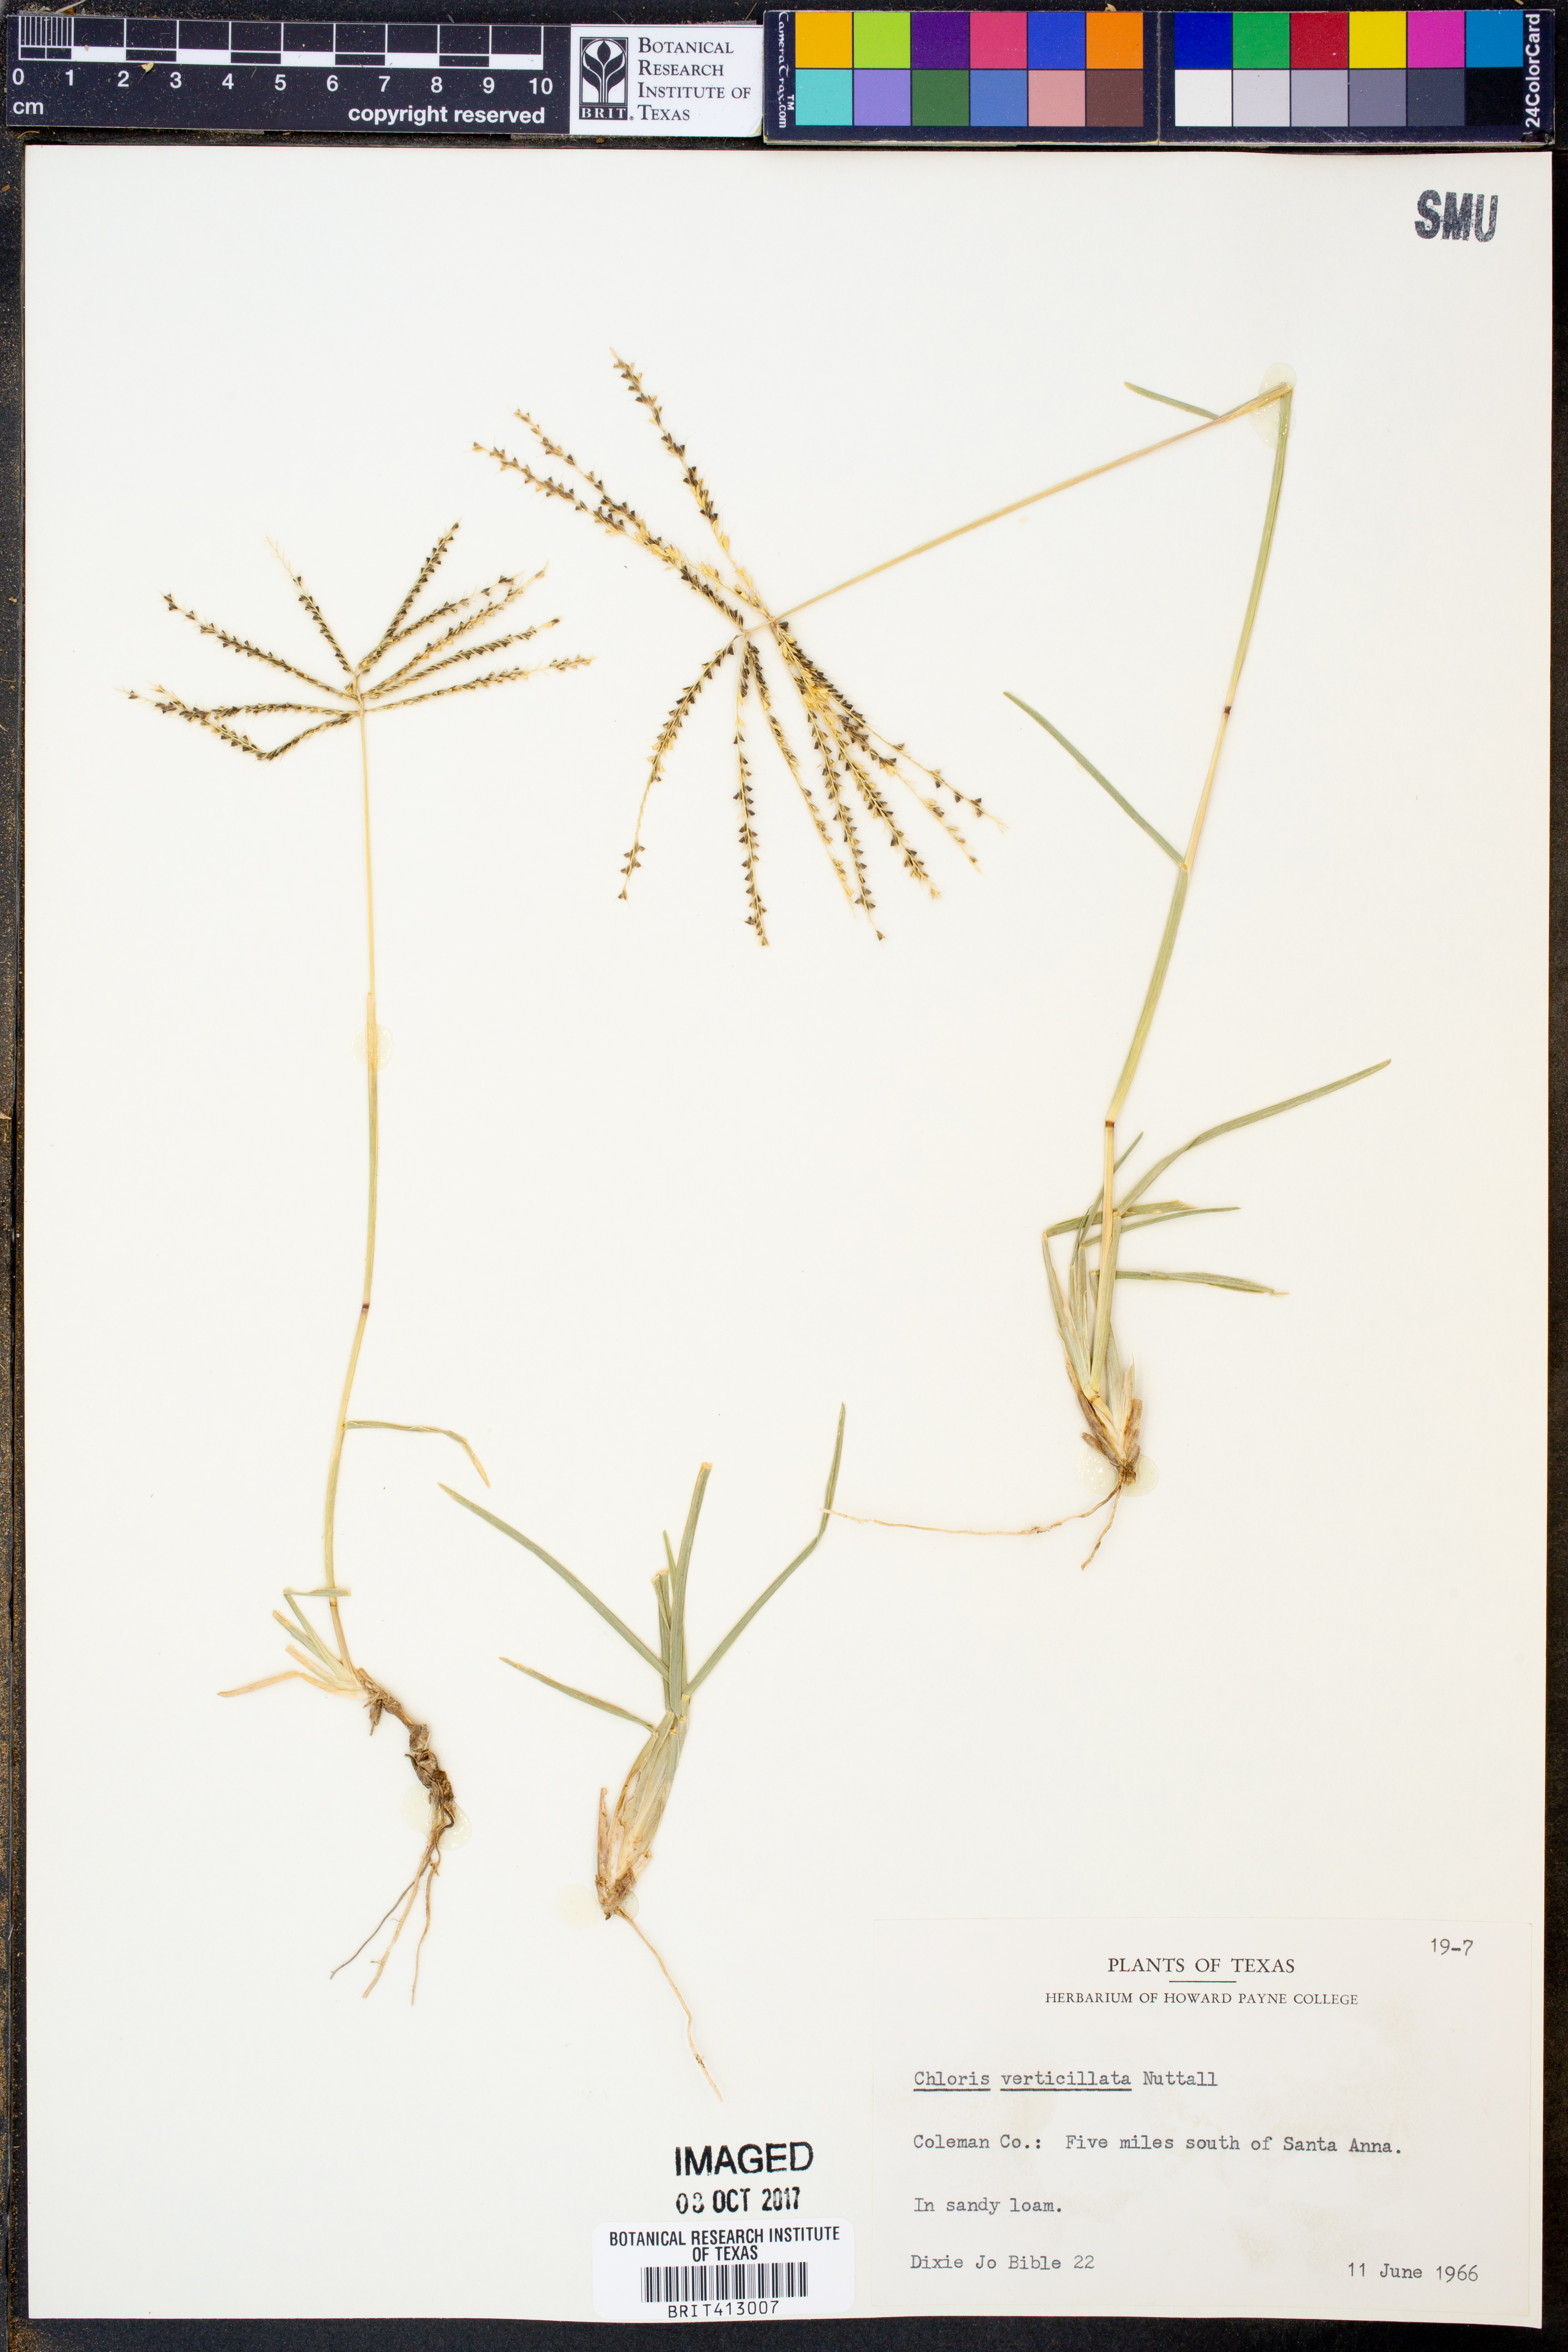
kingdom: Plantae
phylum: Tracheophyta
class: Liliopsida
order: Poales
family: Poaceae
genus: Chloris
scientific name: Chloris verticillata
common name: Tumble windmill grass
